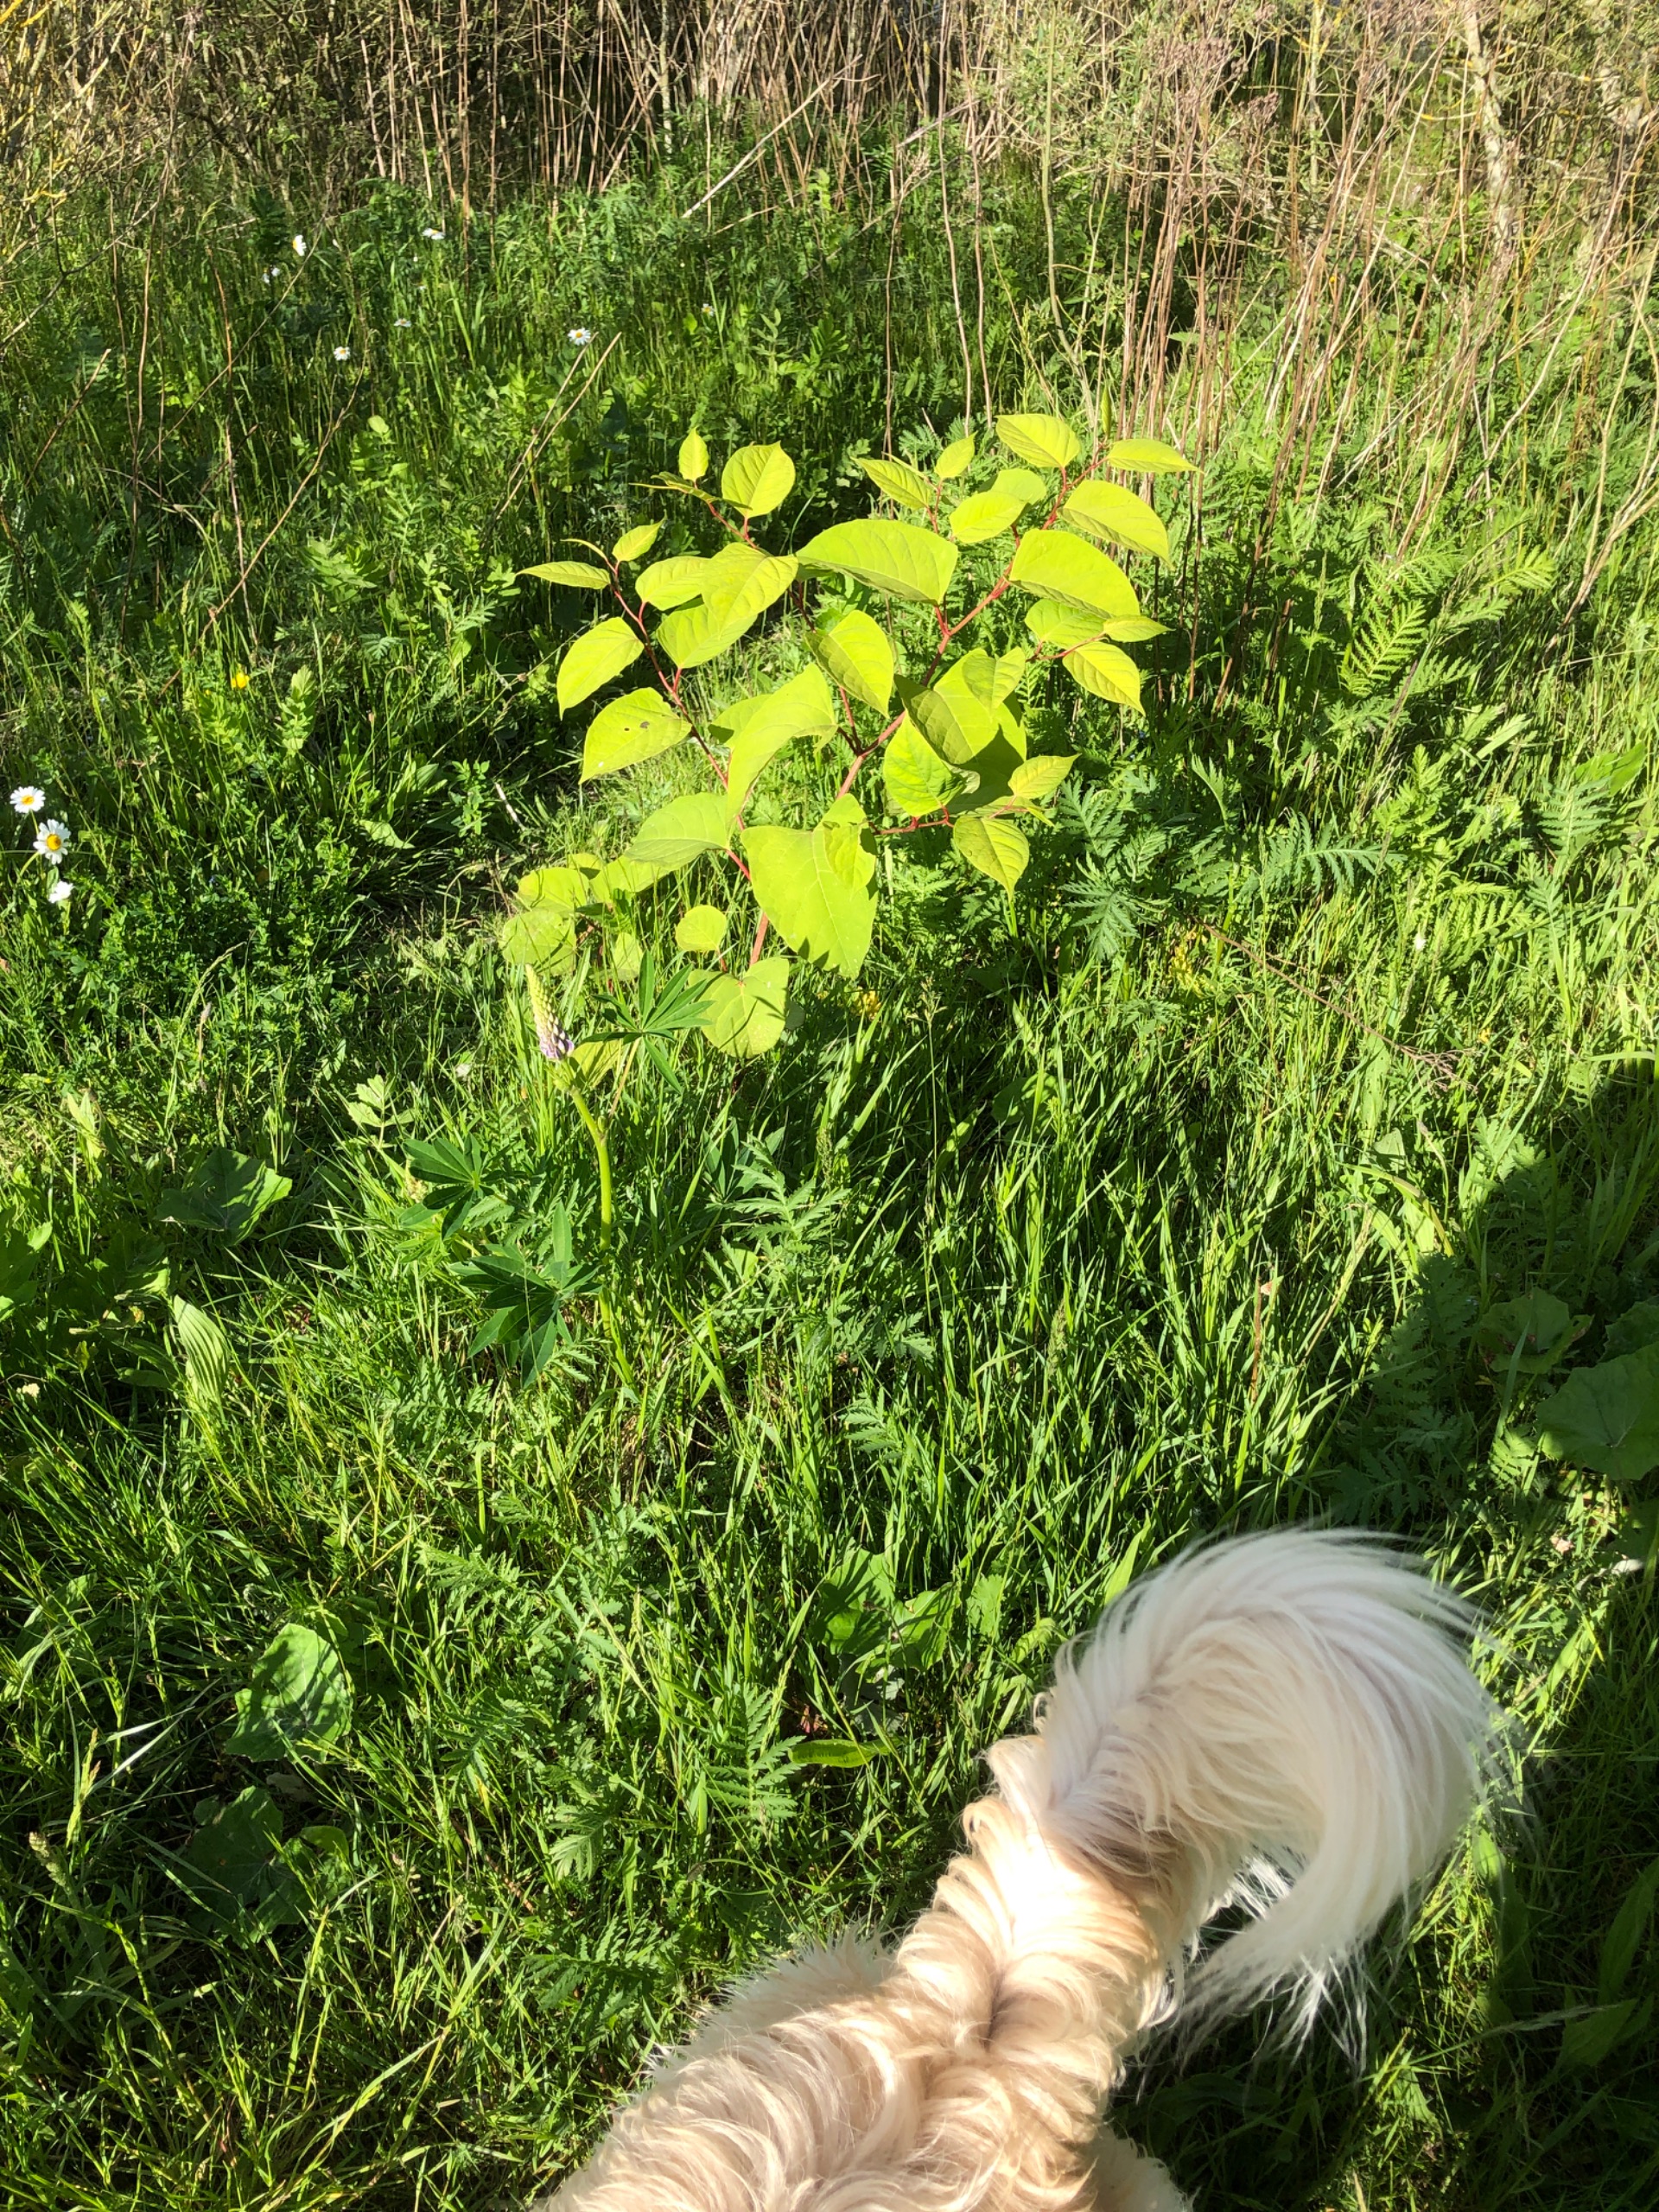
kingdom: Plantae
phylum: Tracheophyta
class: Magnoliopsida
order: Caryophyllales
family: Polygonaceae
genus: Reynoutria
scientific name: Reynoutria japonica
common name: Japan-pileurt
